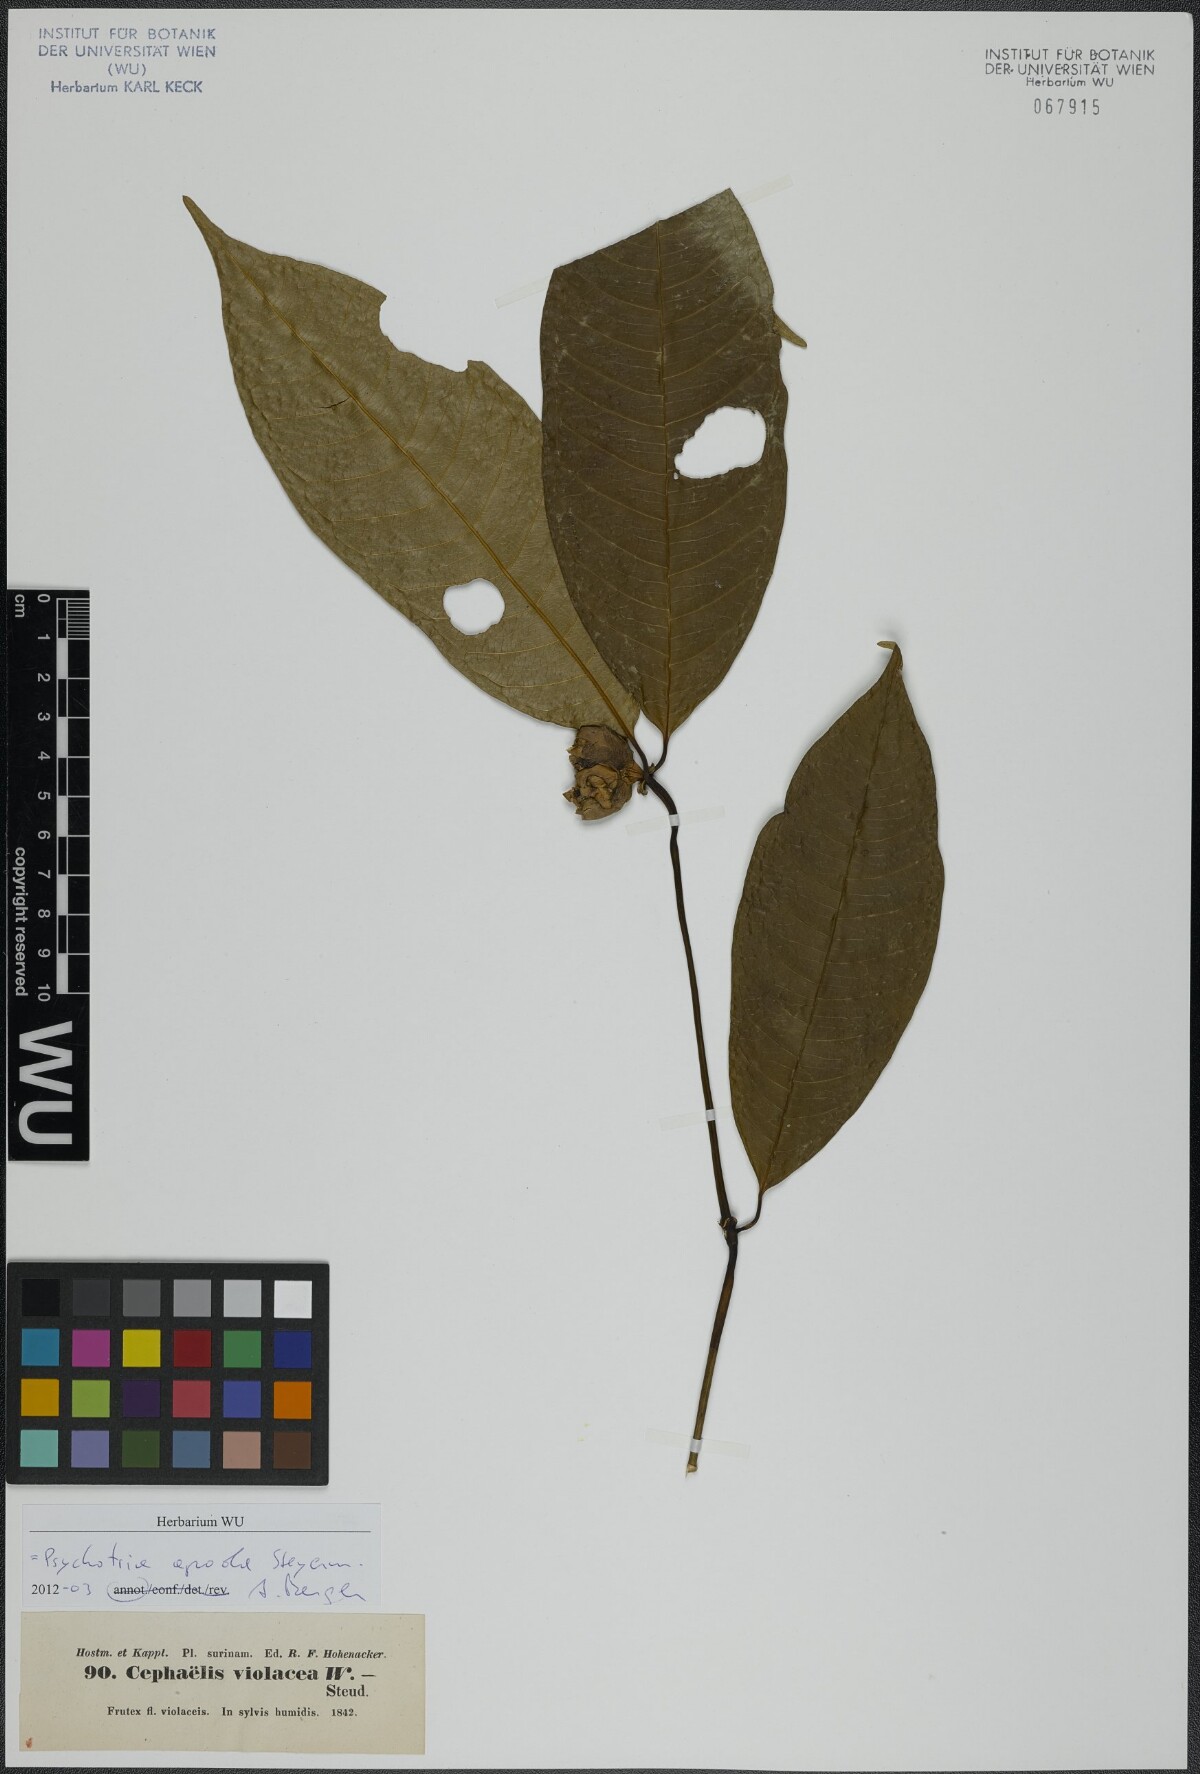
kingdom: Plantae
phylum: Tracheophyta
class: Magnoliopsida
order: Gentianales
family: Rubiaceae
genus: Palicourea
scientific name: Palicourea apoda
